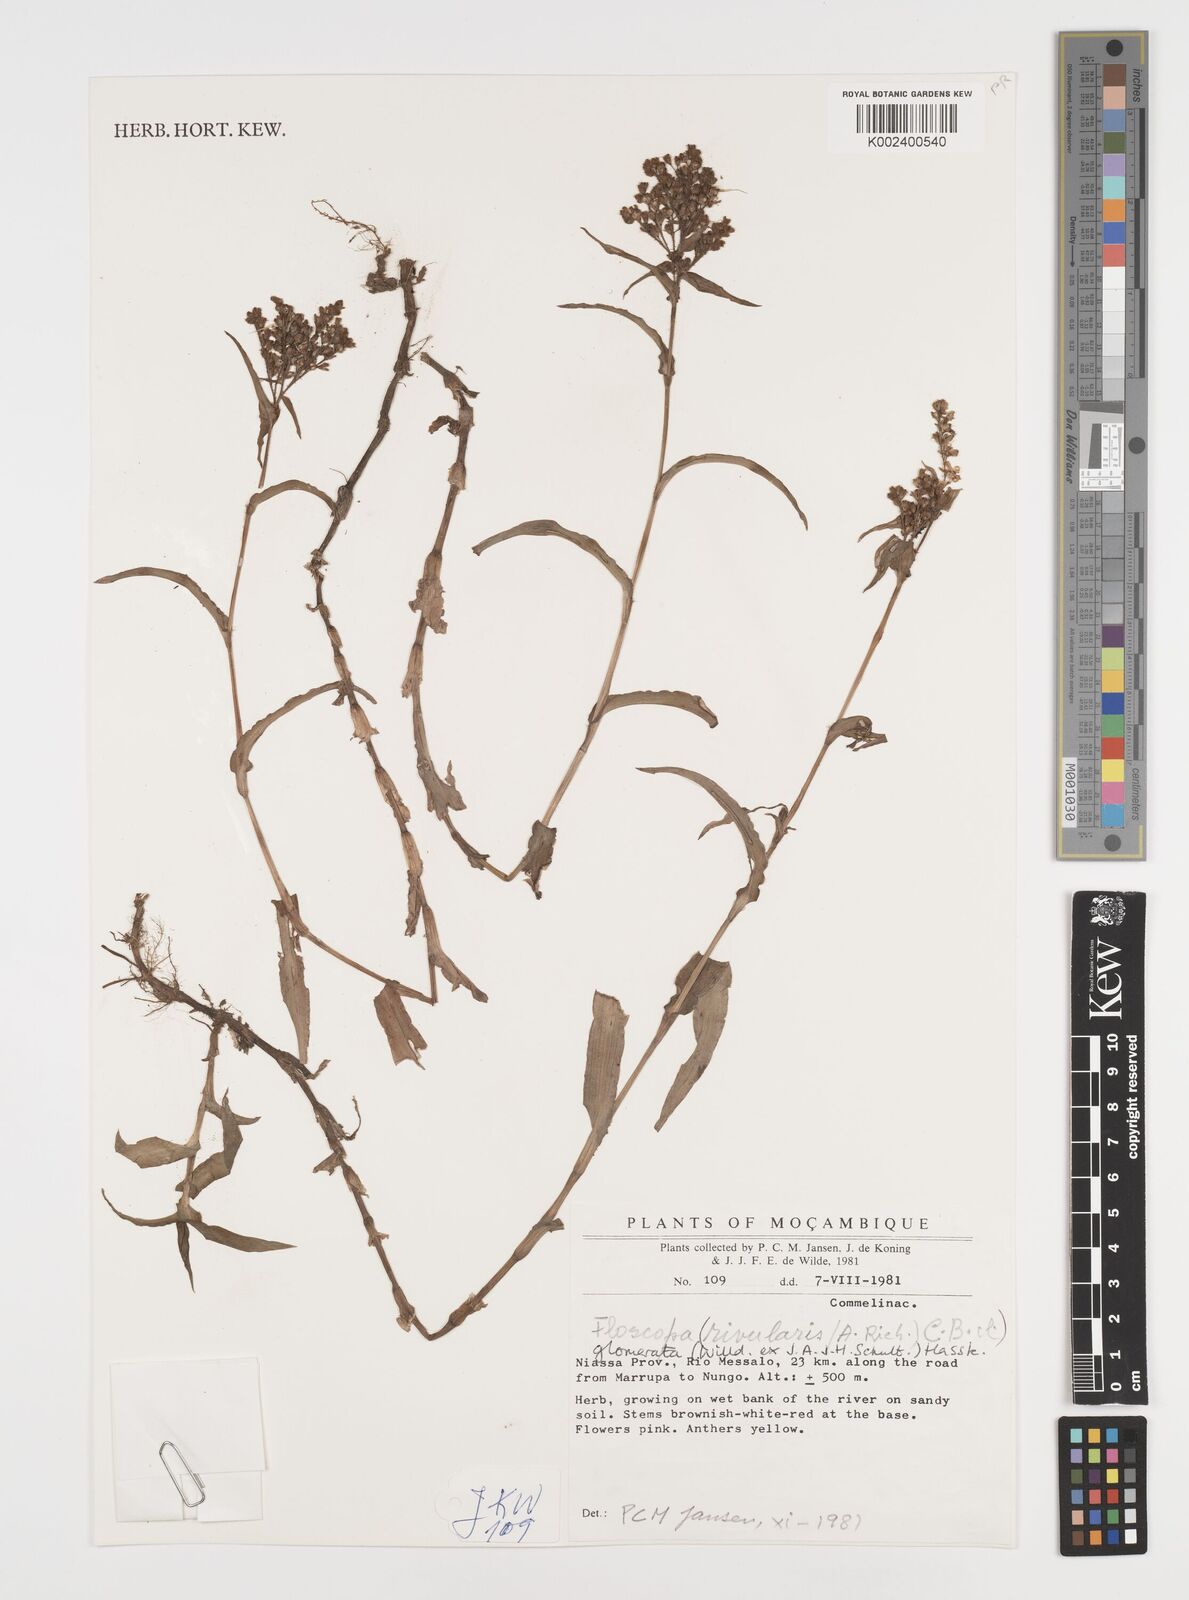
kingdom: Plantae
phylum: Tracheophyta
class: Liliopsida
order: Commelinales
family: Commelinaceae
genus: Floscopa
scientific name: Floscopa glomerata
